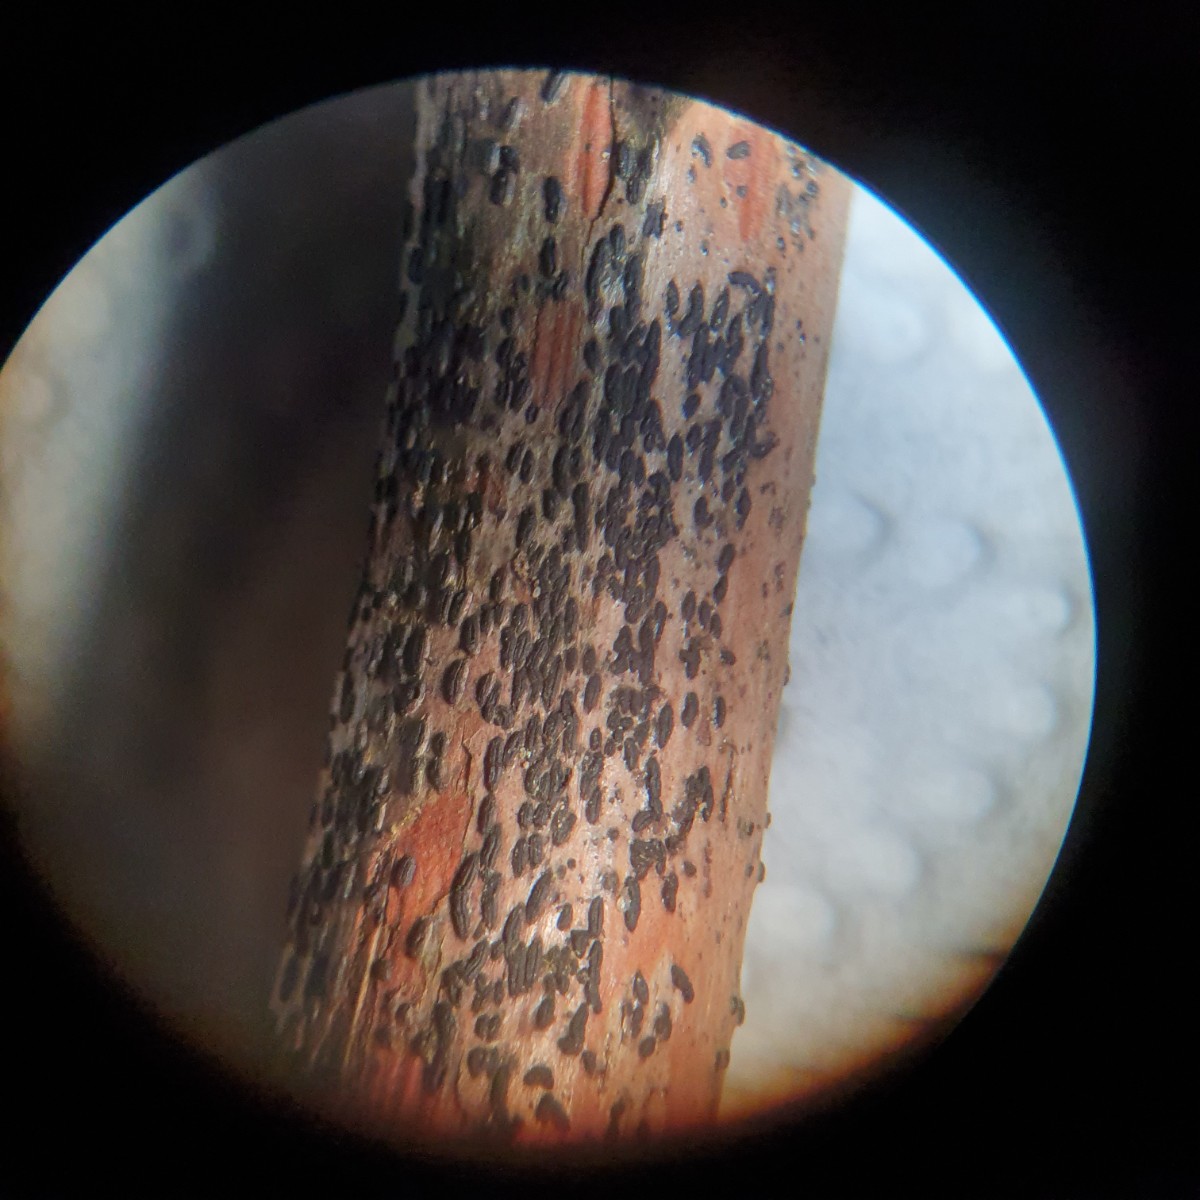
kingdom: Fungi
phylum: Ascomycota
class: Dothideomycetes
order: Hysteriales
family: Hysteriaceae
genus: Hysterobrevium
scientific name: Hysterobrevium smilacis
